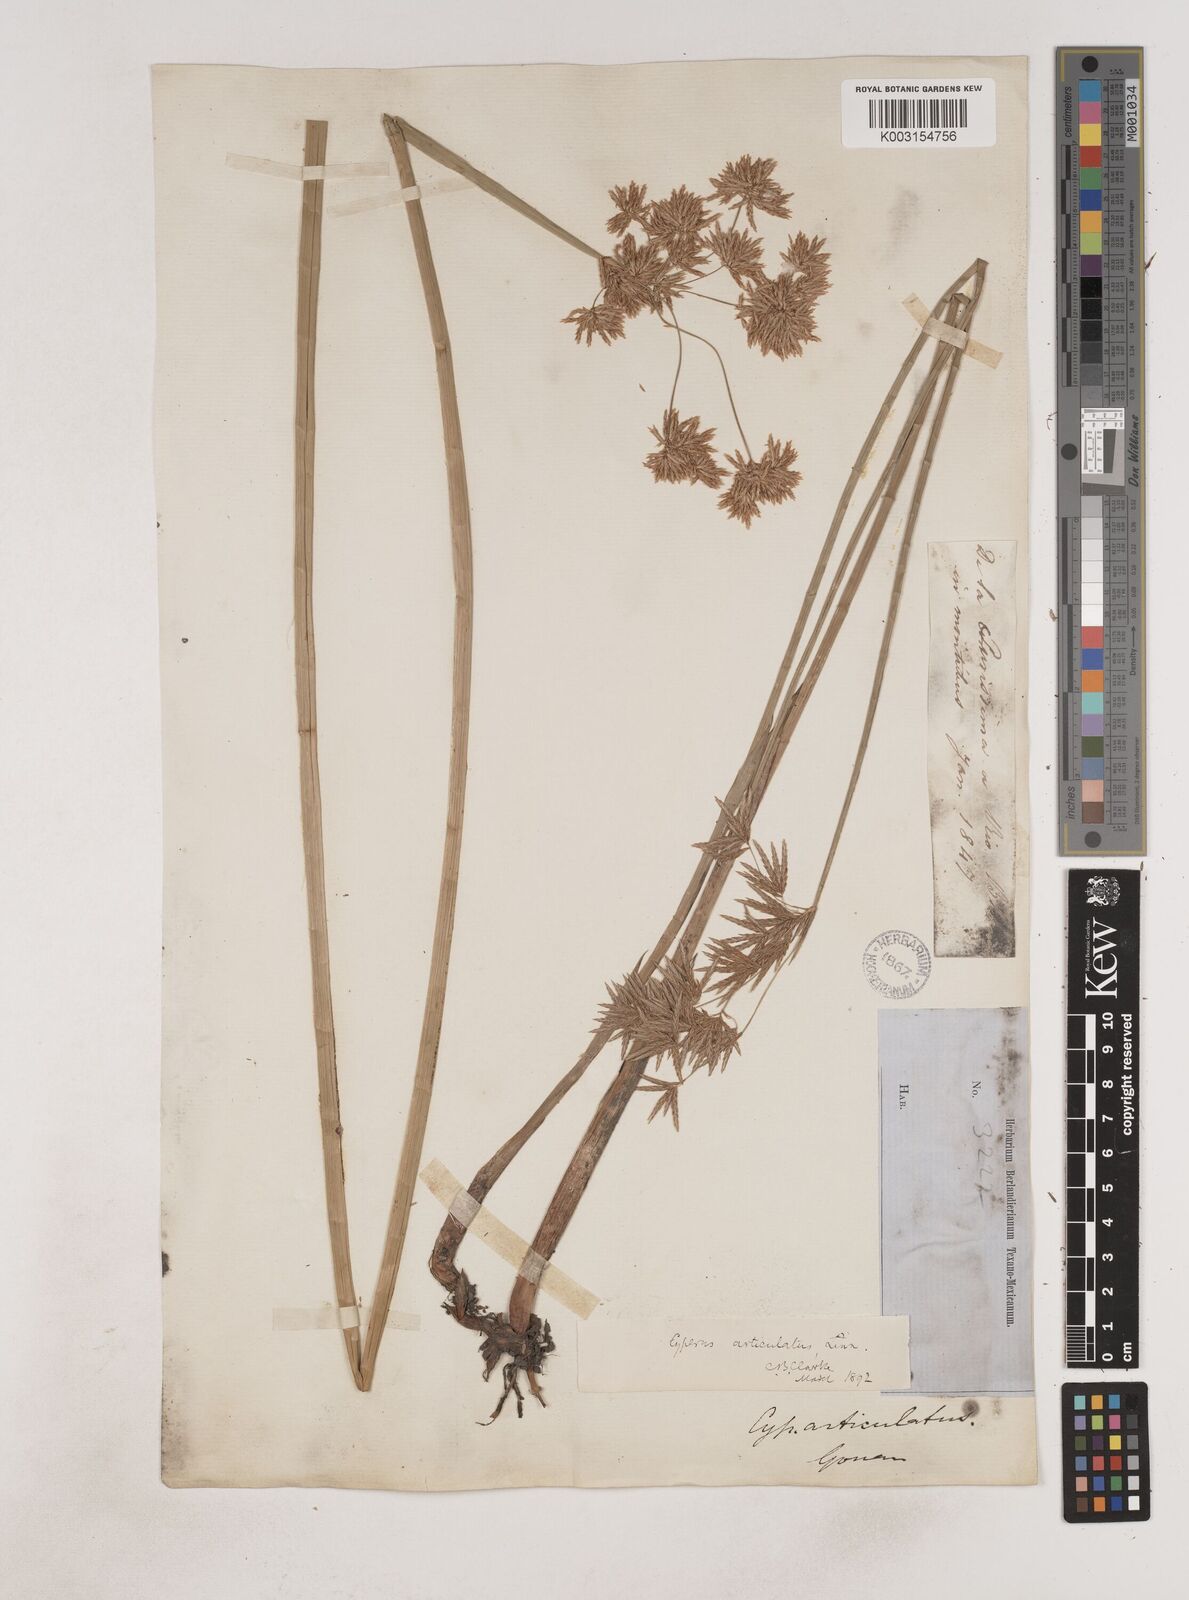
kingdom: Plantae
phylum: Tracheophyta
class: Liliopsida
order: Poales
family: Cyperaceae
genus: Cyperus
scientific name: Cyperus articulatus
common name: Jointed flatsedge
